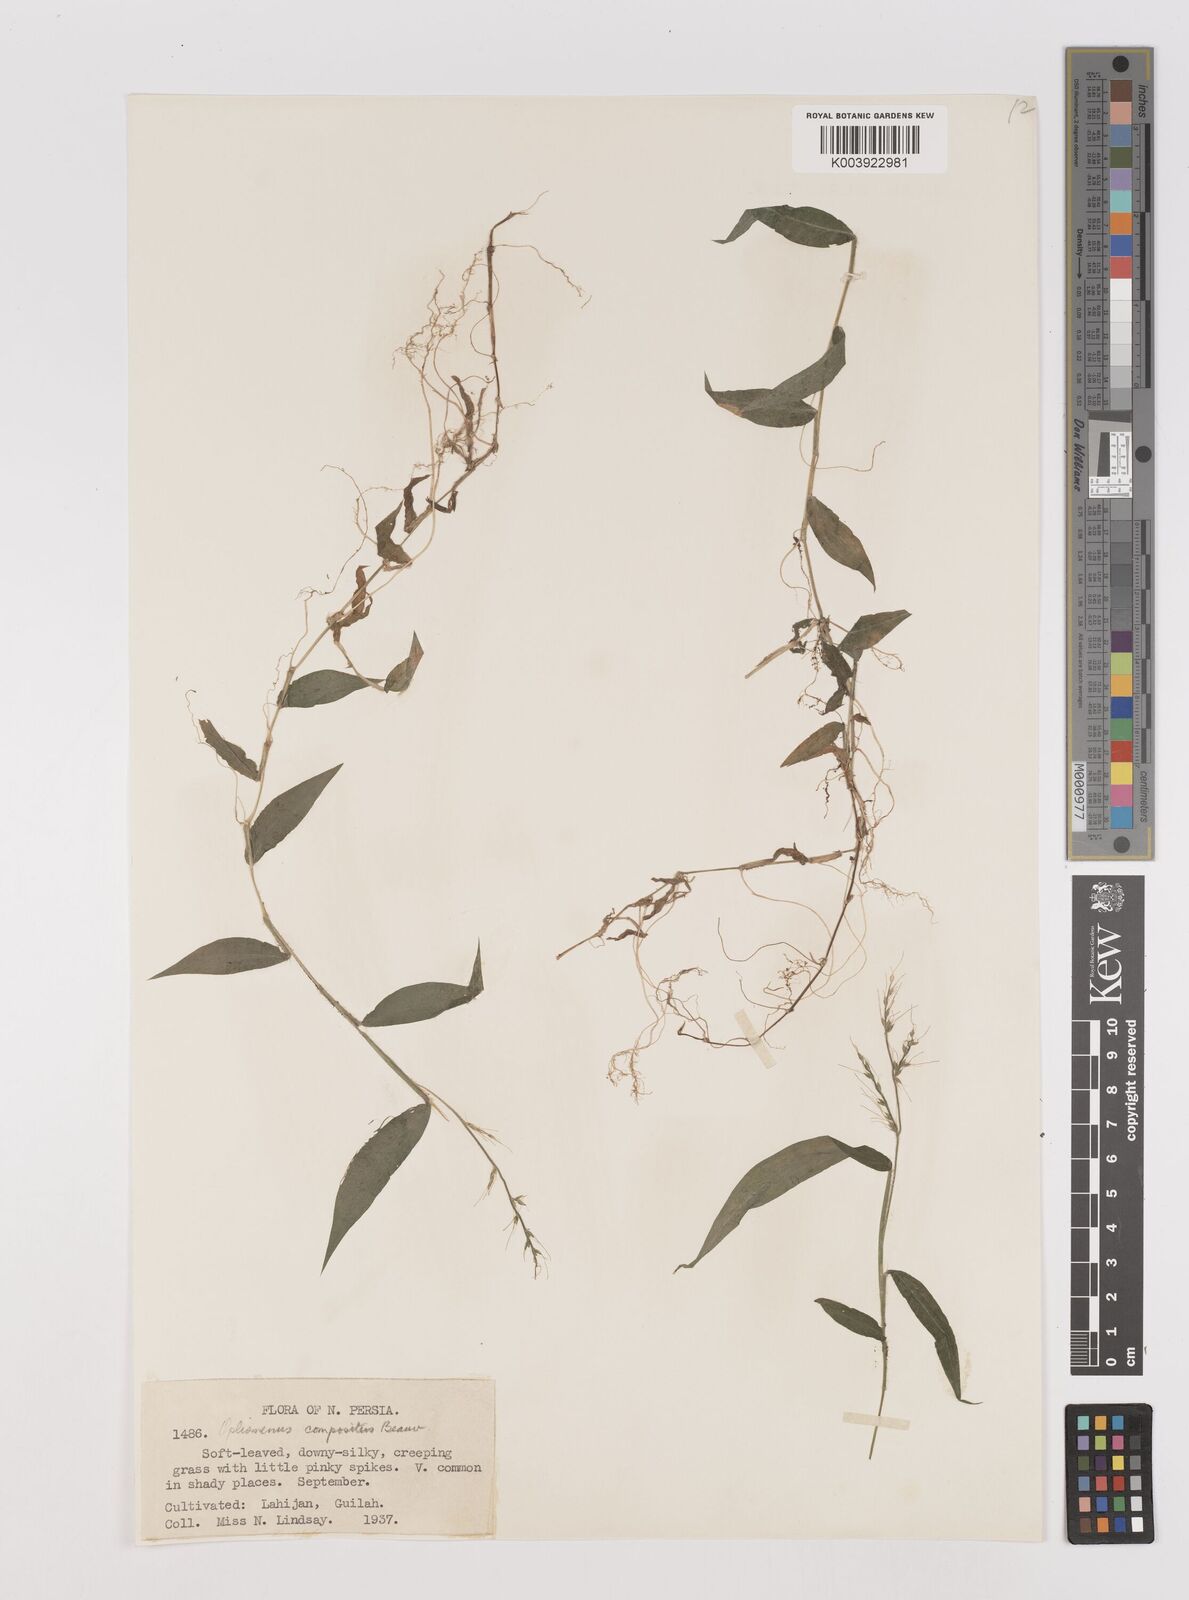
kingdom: Plantae
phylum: Tracheophyta
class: Liliopsida
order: Poales
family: Poaceae
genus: Oplismenus
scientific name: Oplismenus compositus
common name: Running mountain grass
